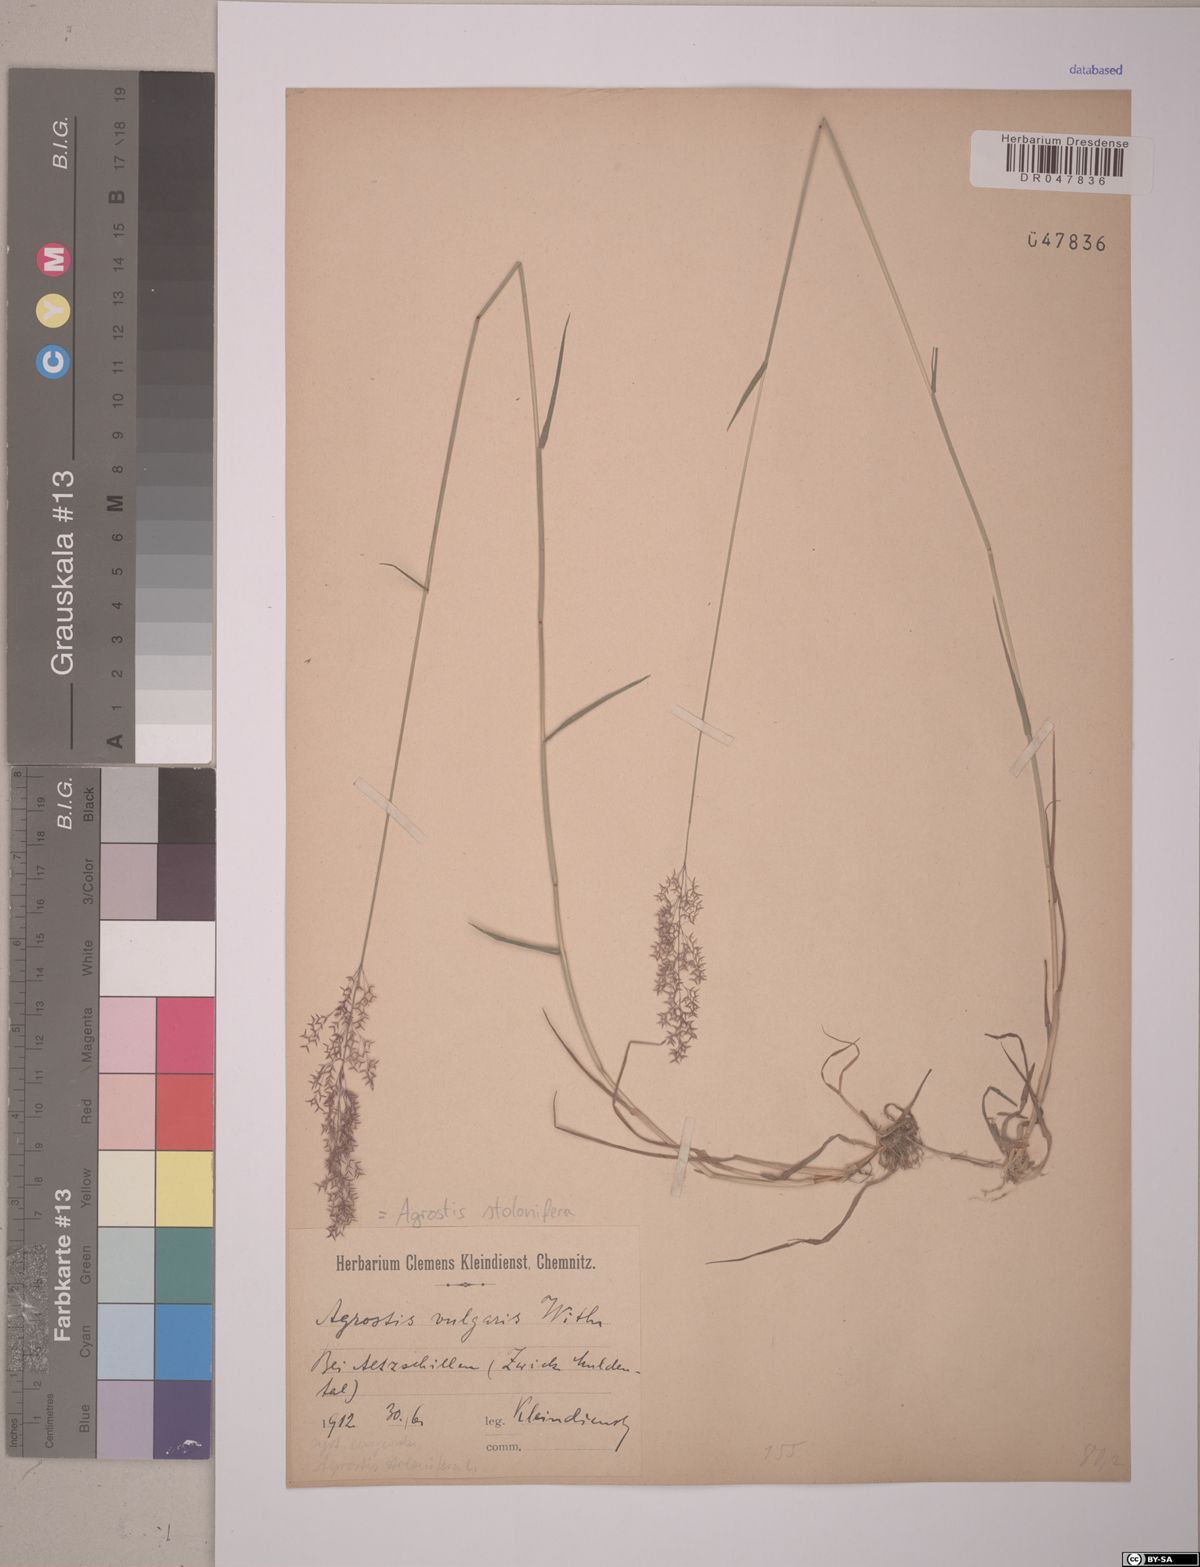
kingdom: Plantae
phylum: Tracheophyta
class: Liliopsida
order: Poales
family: Poaceae
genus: Agrostis
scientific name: Agrostis stolonifera
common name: Creeping bentgrass
